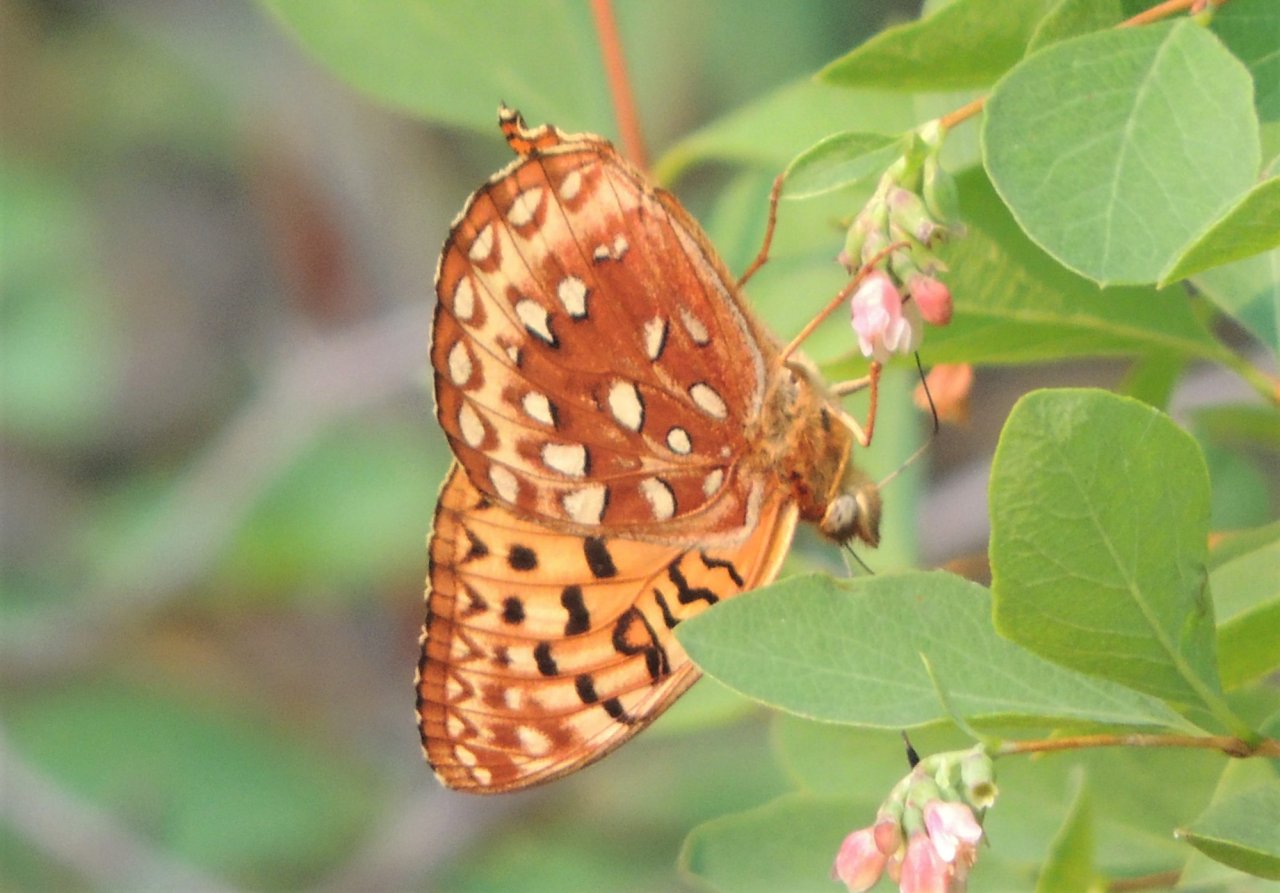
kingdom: Animalia
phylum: Arthropoda
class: Insecta
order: Lepidoptera
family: Nymphalidae
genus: Speyeria
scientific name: Speyeria hydaspe
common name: Hydaspe Fritillary
